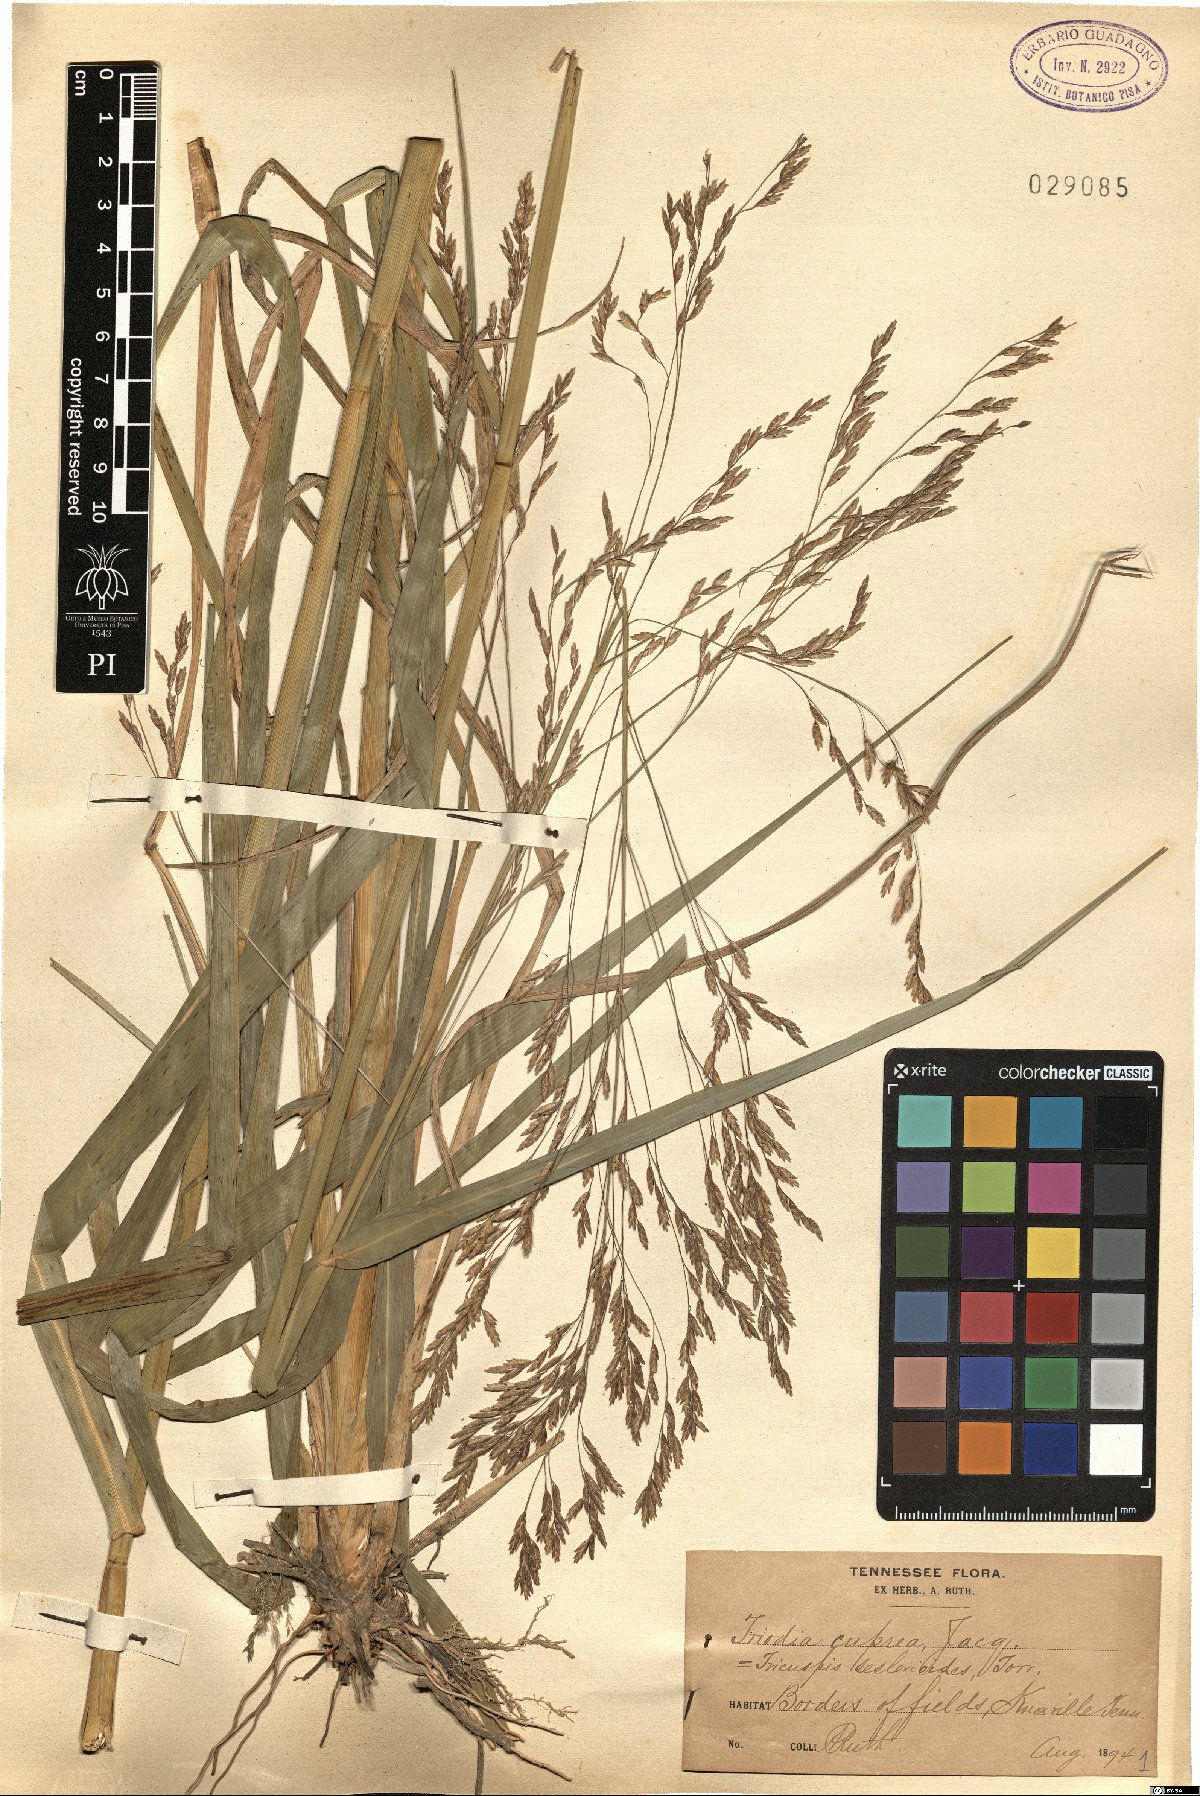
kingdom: Plantae
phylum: Tracheophyta
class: Liliopsida
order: Poales
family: Poaceae
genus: Tridens
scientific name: Tridens flavus
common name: Purpletop
